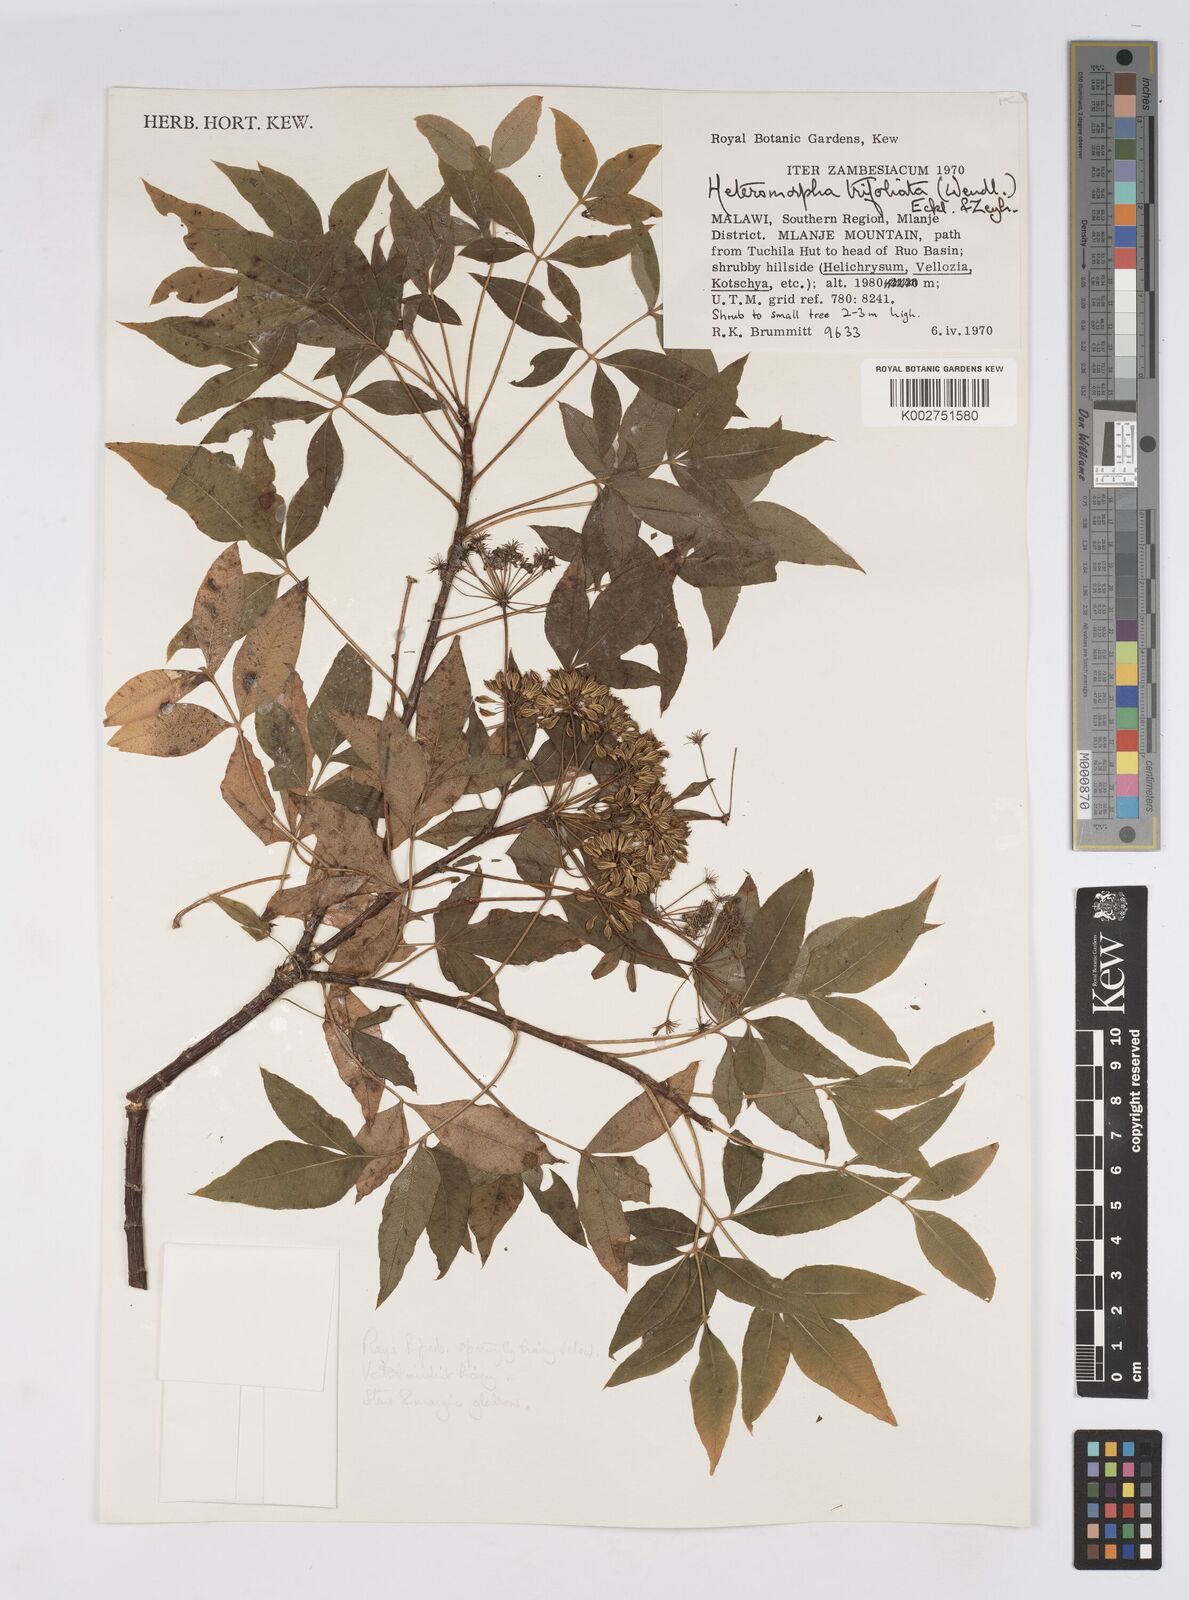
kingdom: Plantae
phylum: Tracheophyta
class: Magnoliopsida
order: Apiales
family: Apiaceae
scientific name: Apiaceae
